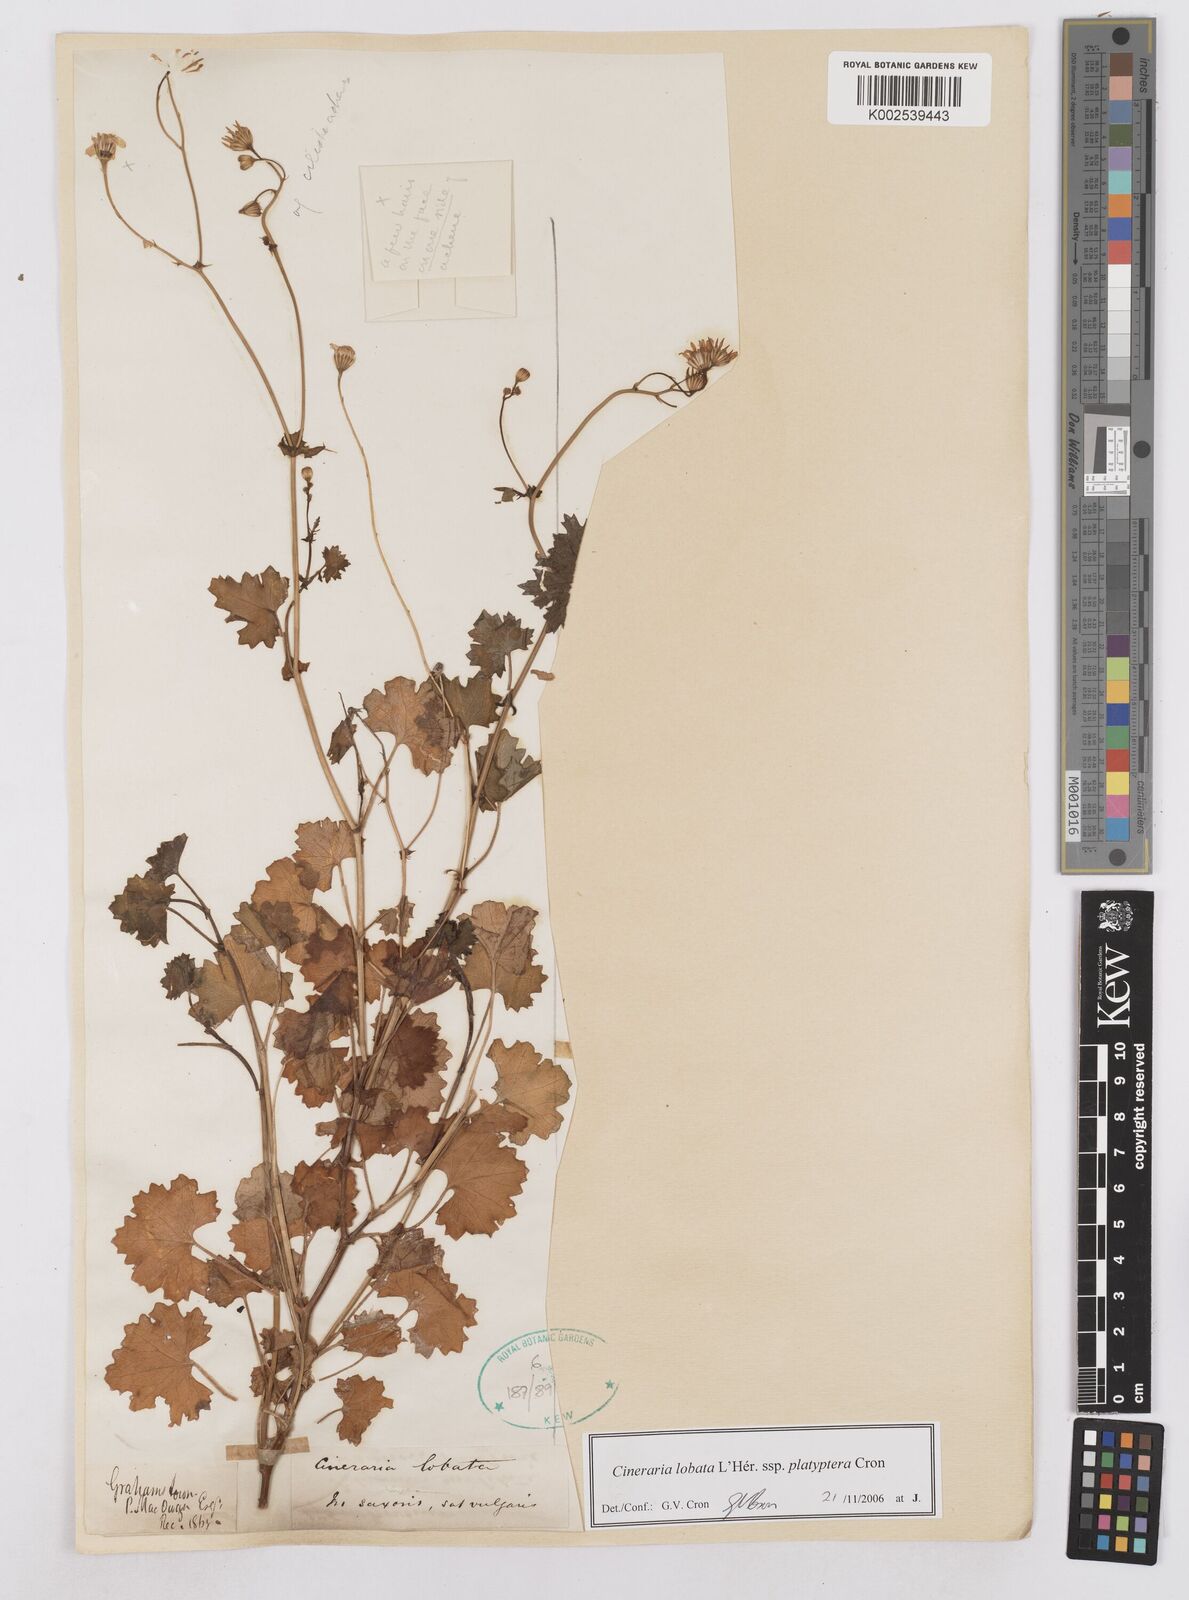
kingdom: Plantae
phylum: Tracheophyta
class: Magnoliopsida
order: Asterales
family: Asteraceae
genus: Cineraria
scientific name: Cineraria lobata
